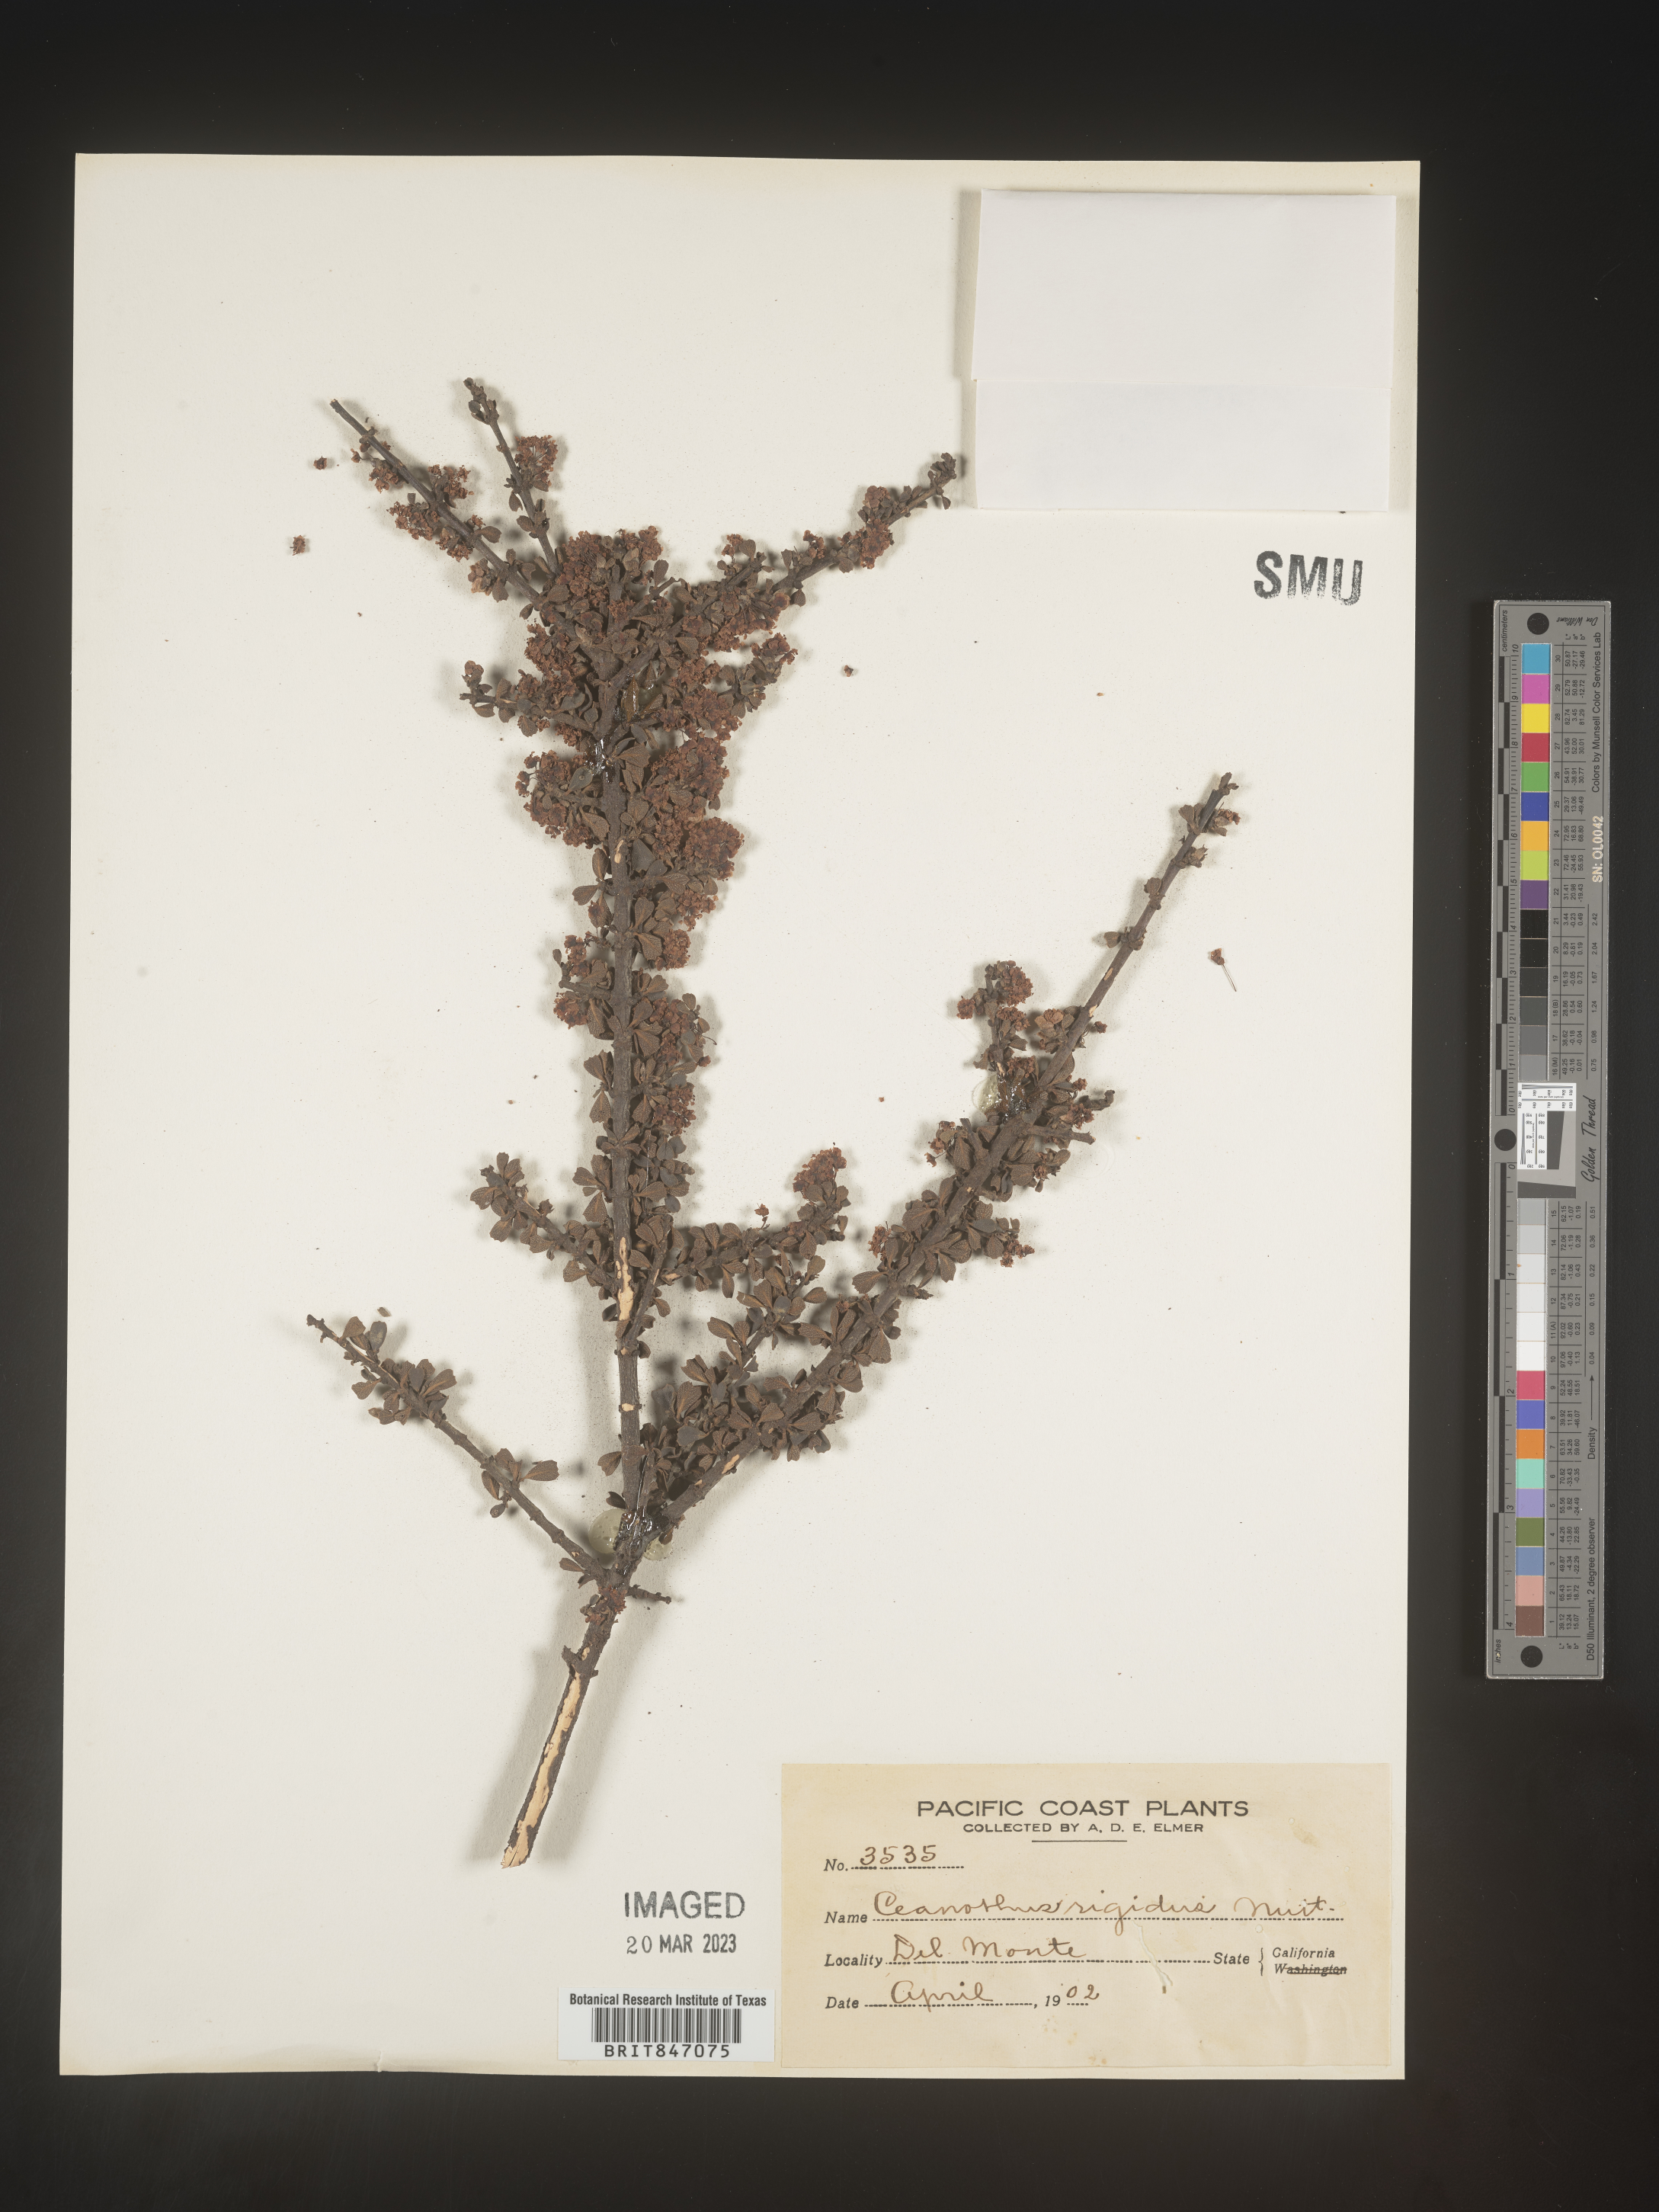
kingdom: Plantae
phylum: Tracheophyta
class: Magnoliopsida
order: Rosales
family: Rhamnaceae
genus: Ceanothus
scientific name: Ceanothus
